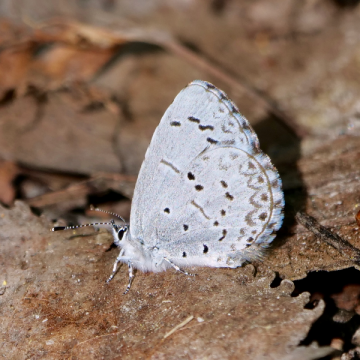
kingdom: Animalia
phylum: Arthropoda
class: Insecta
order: Lepidoptera
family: Lycaenidae
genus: Celastrina
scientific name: Celastrina lucia
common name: Northern Spring Azure
